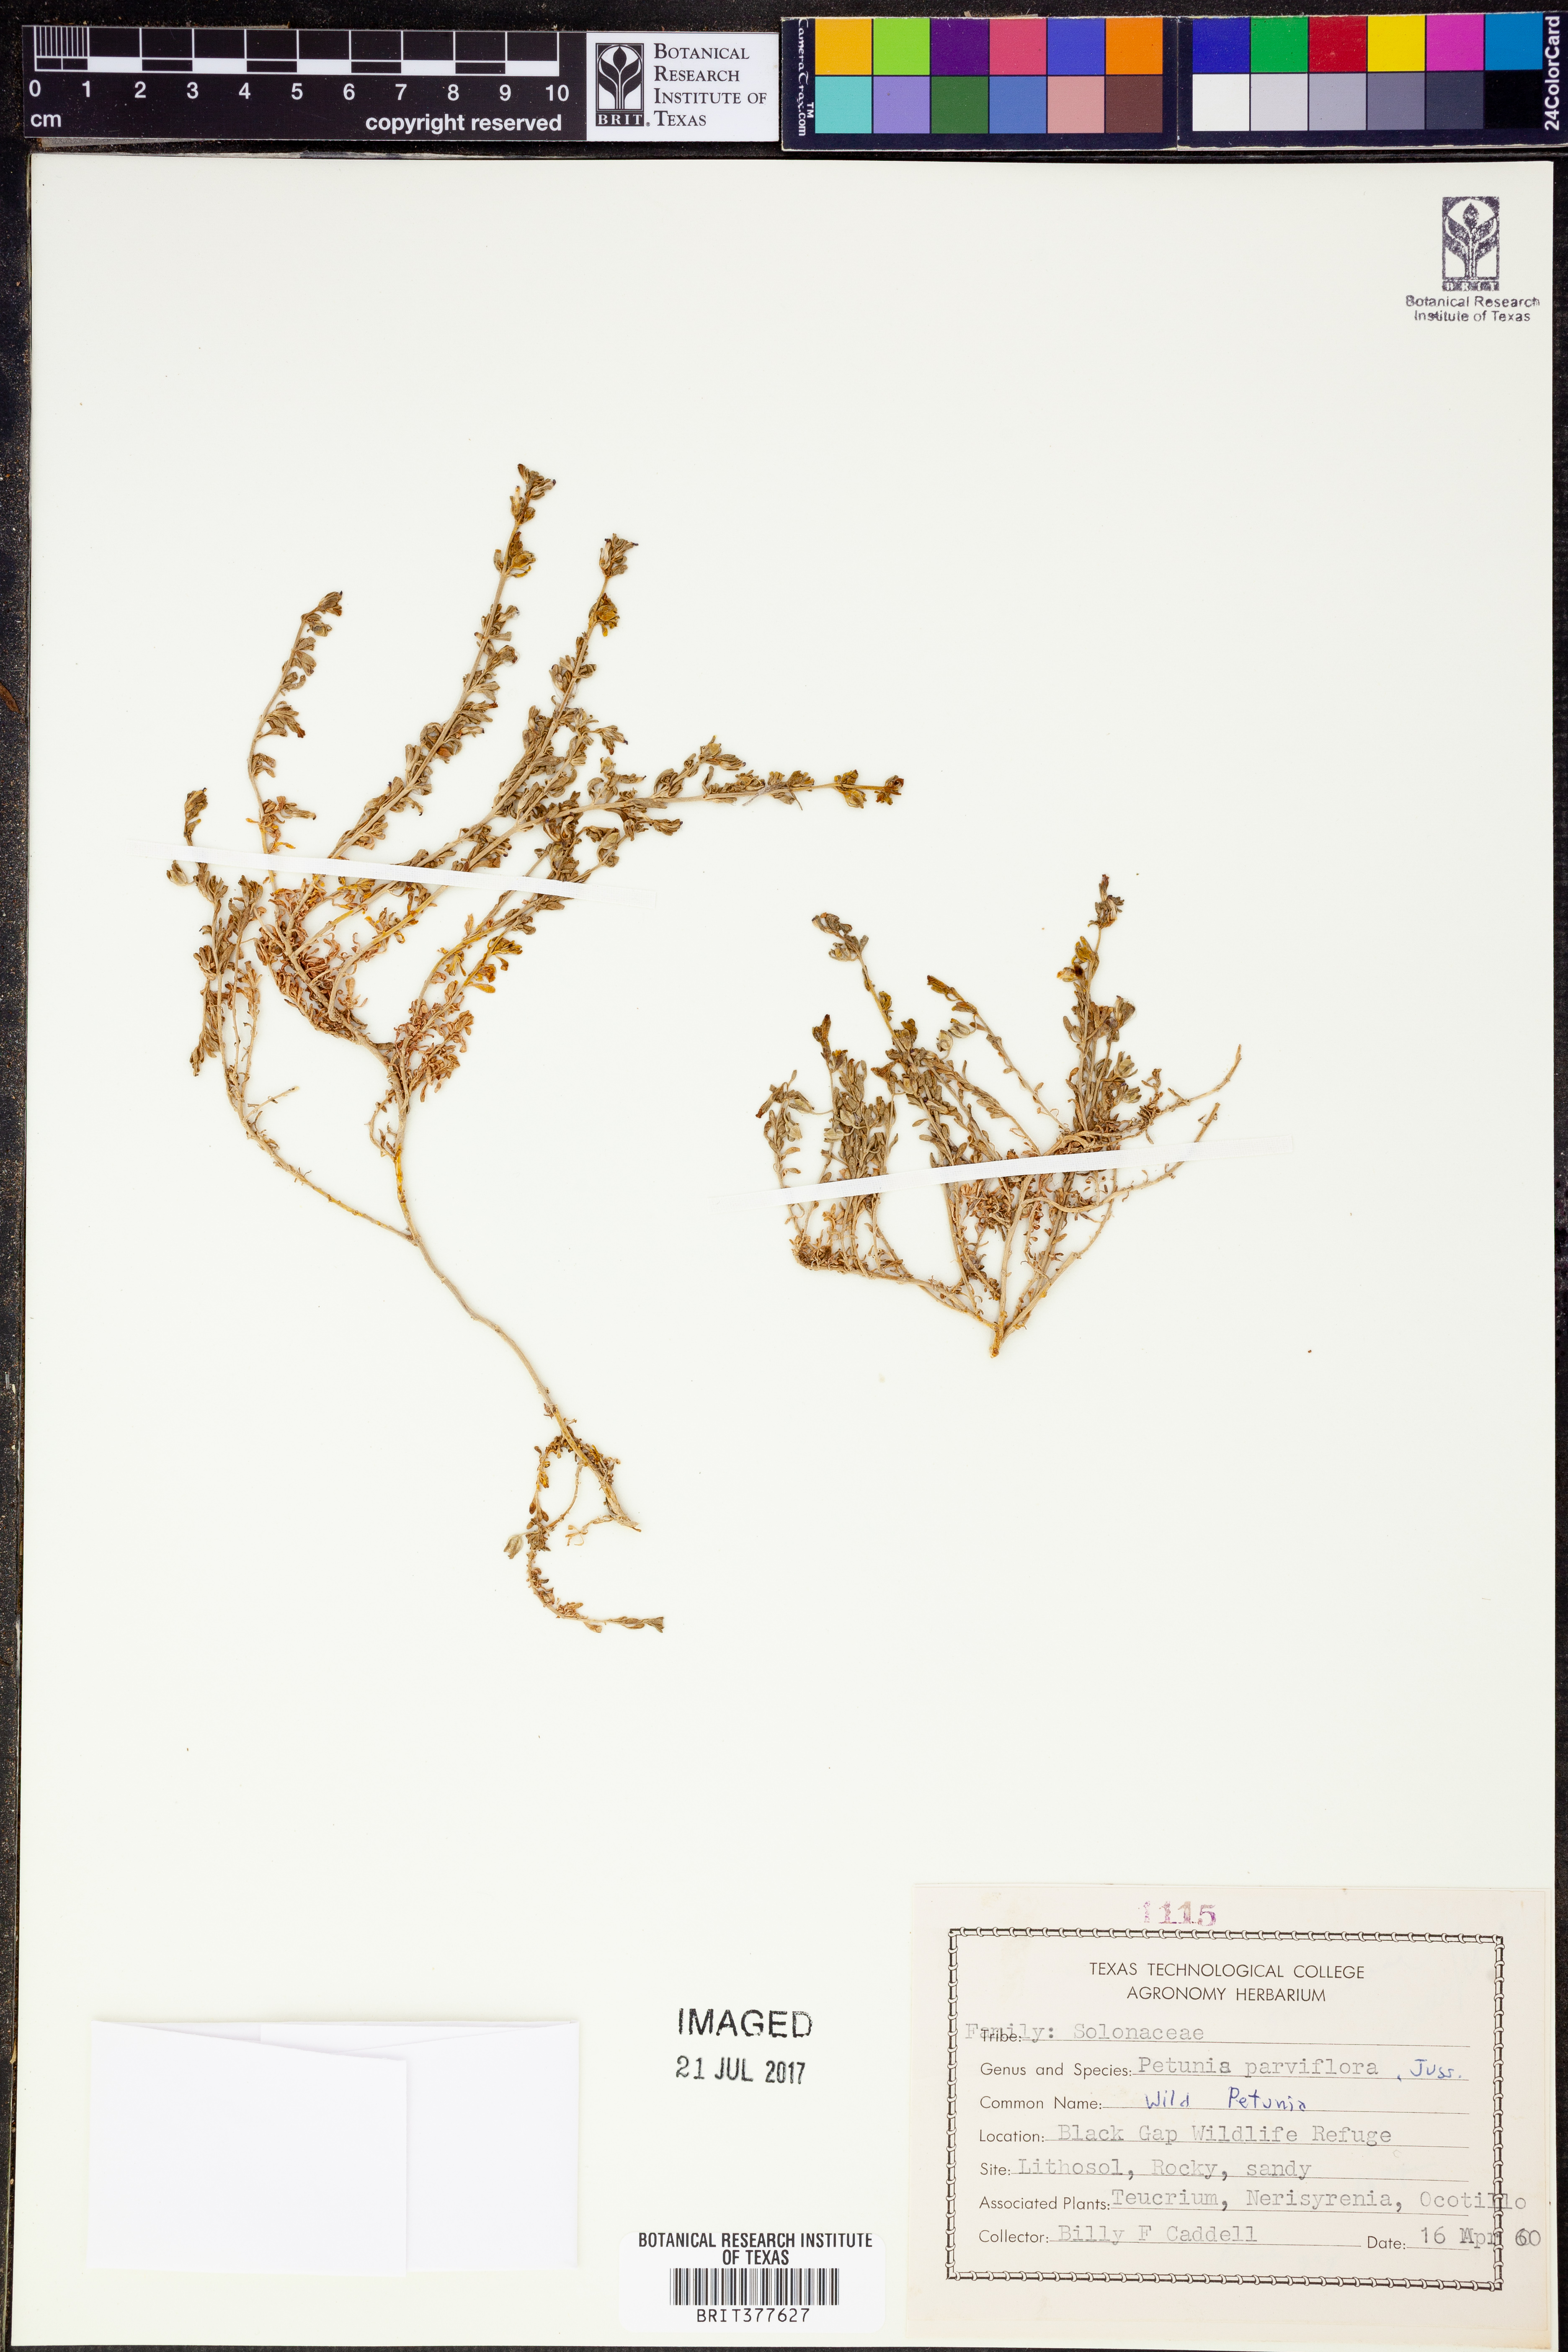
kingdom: Plantae
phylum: Tracheophyta
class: Magnoliopsida
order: Solanales
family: Solanaceae
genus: Calibrachoa
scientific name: Calibrachoa parviflora
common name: Seaside petunia
